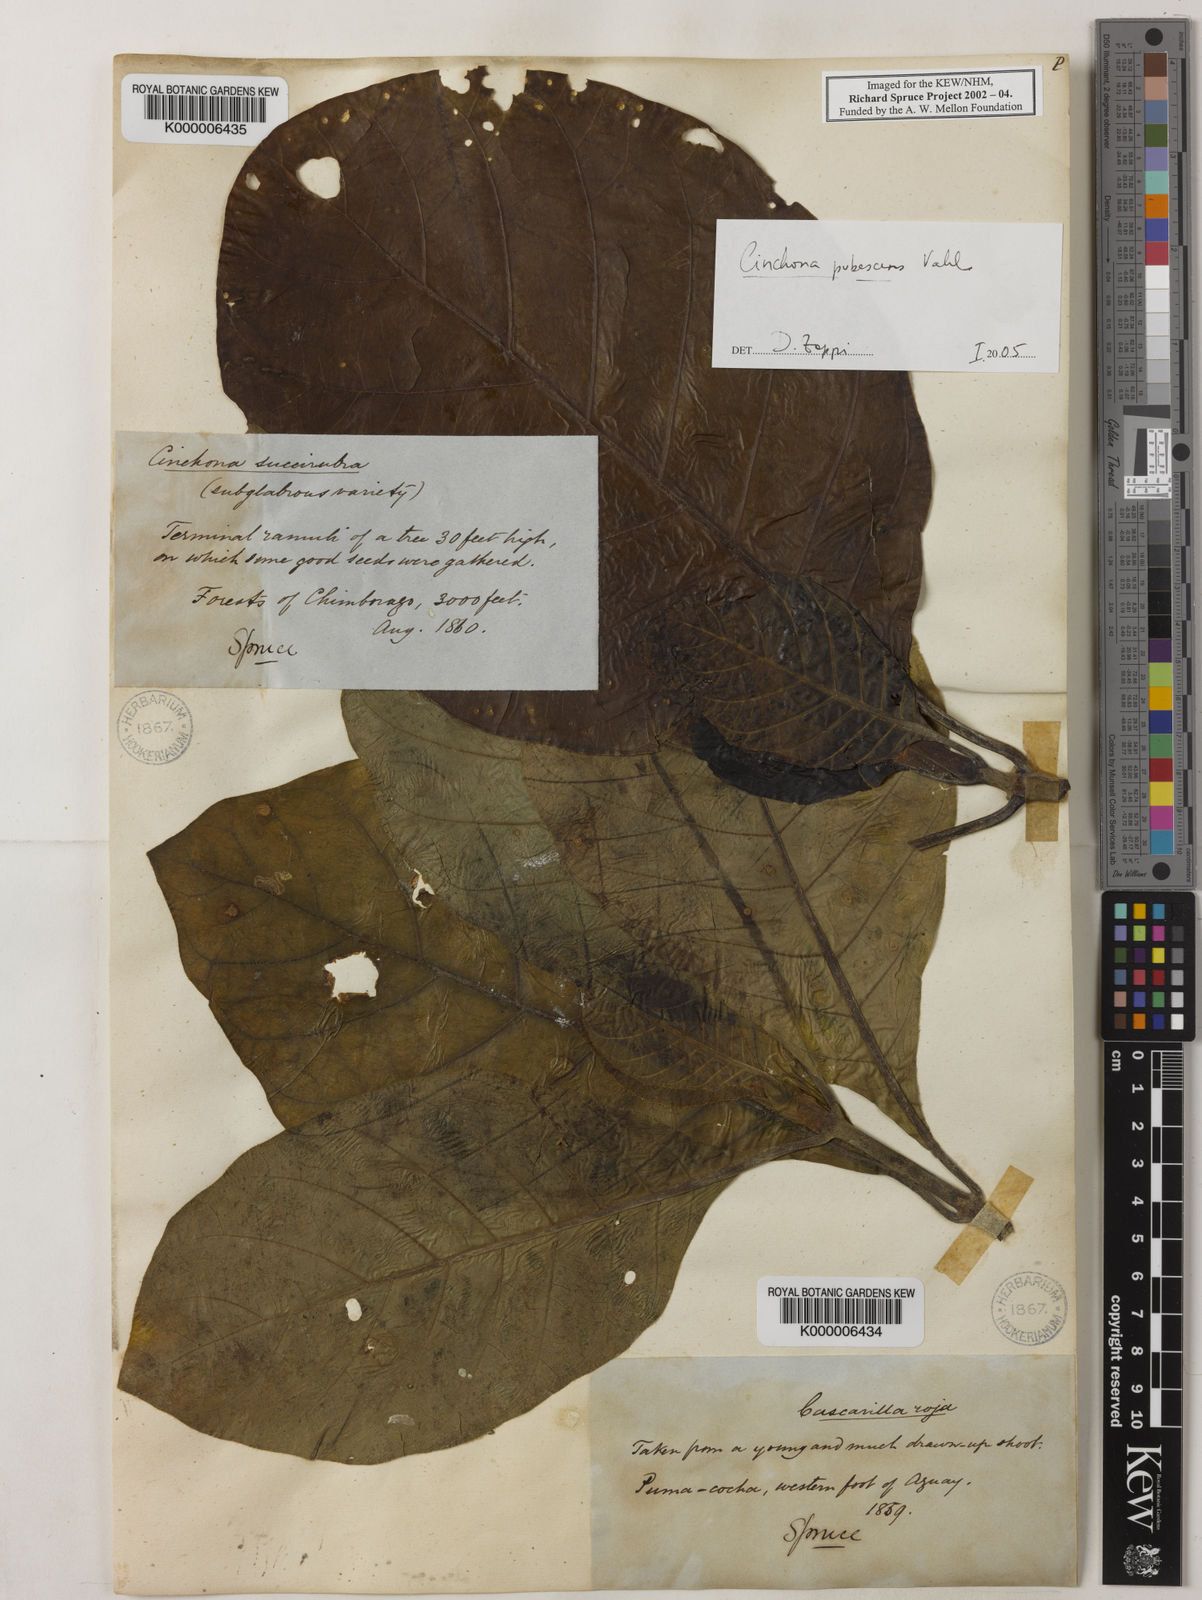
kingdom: Plantae
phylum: Tracheophyta
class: Magnoliopsida
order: Gentianales
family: Rubiaceae
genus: Cinchona
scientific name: Cinchona pubescens
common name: Quinine
